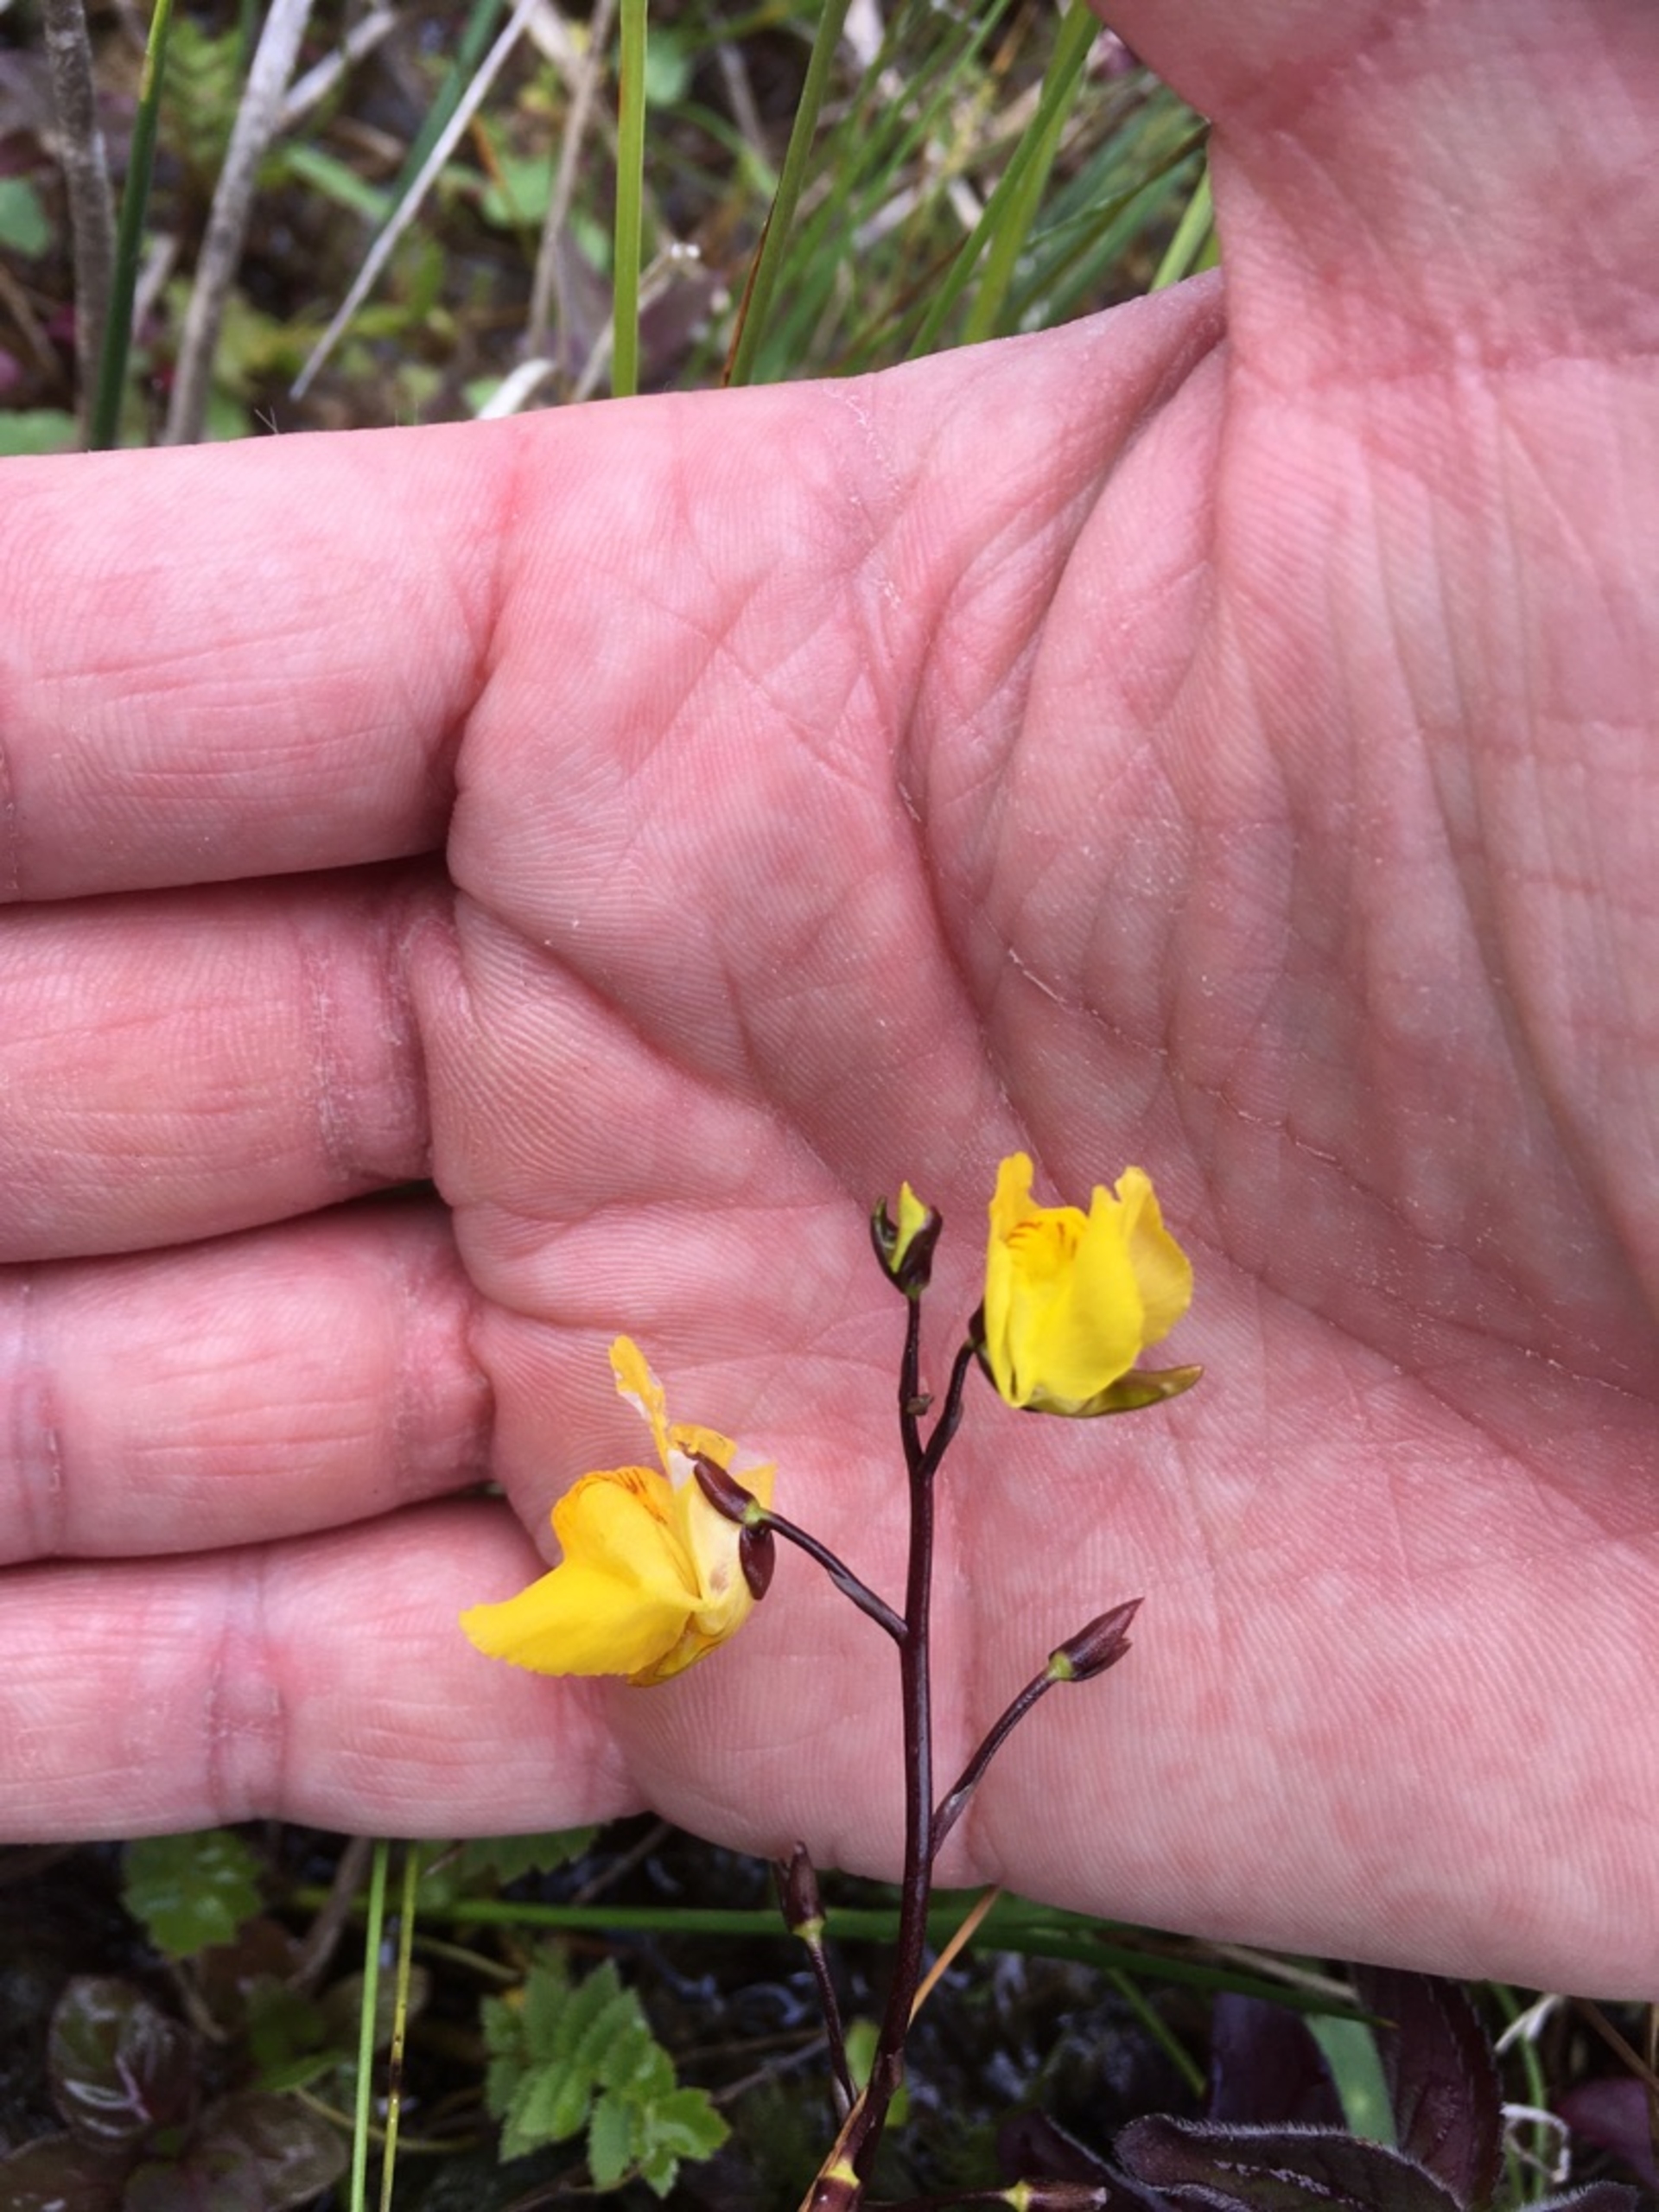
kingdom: Plantae
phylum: Tracheophyta
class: Magnoliopsida
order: Lamiales
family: Lentibulariaceae
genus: Utricularia
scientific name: Utricularia vulgaris
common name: Almindelig blærerod
